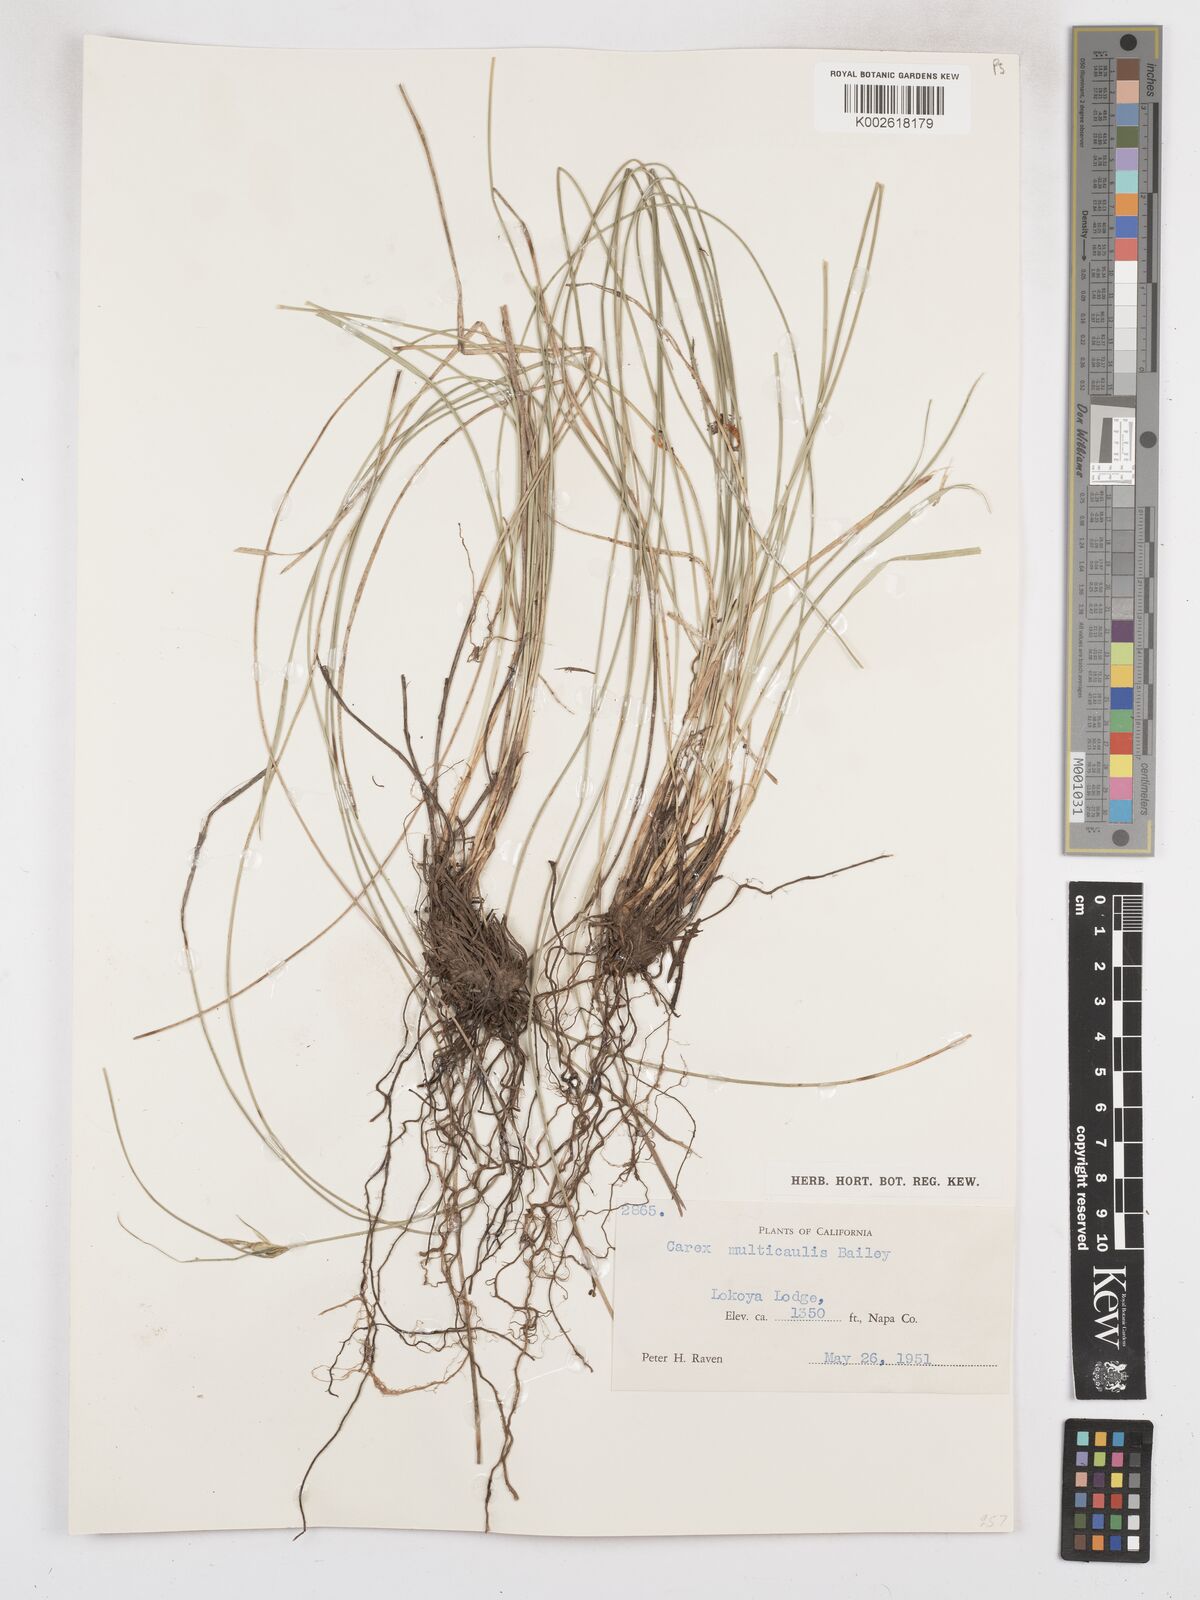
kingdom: Plantae
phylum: Tracheophyta
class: Liliopsida
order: Poales
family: Cyperaceae
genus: Carex
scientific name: Carex multicaulis
